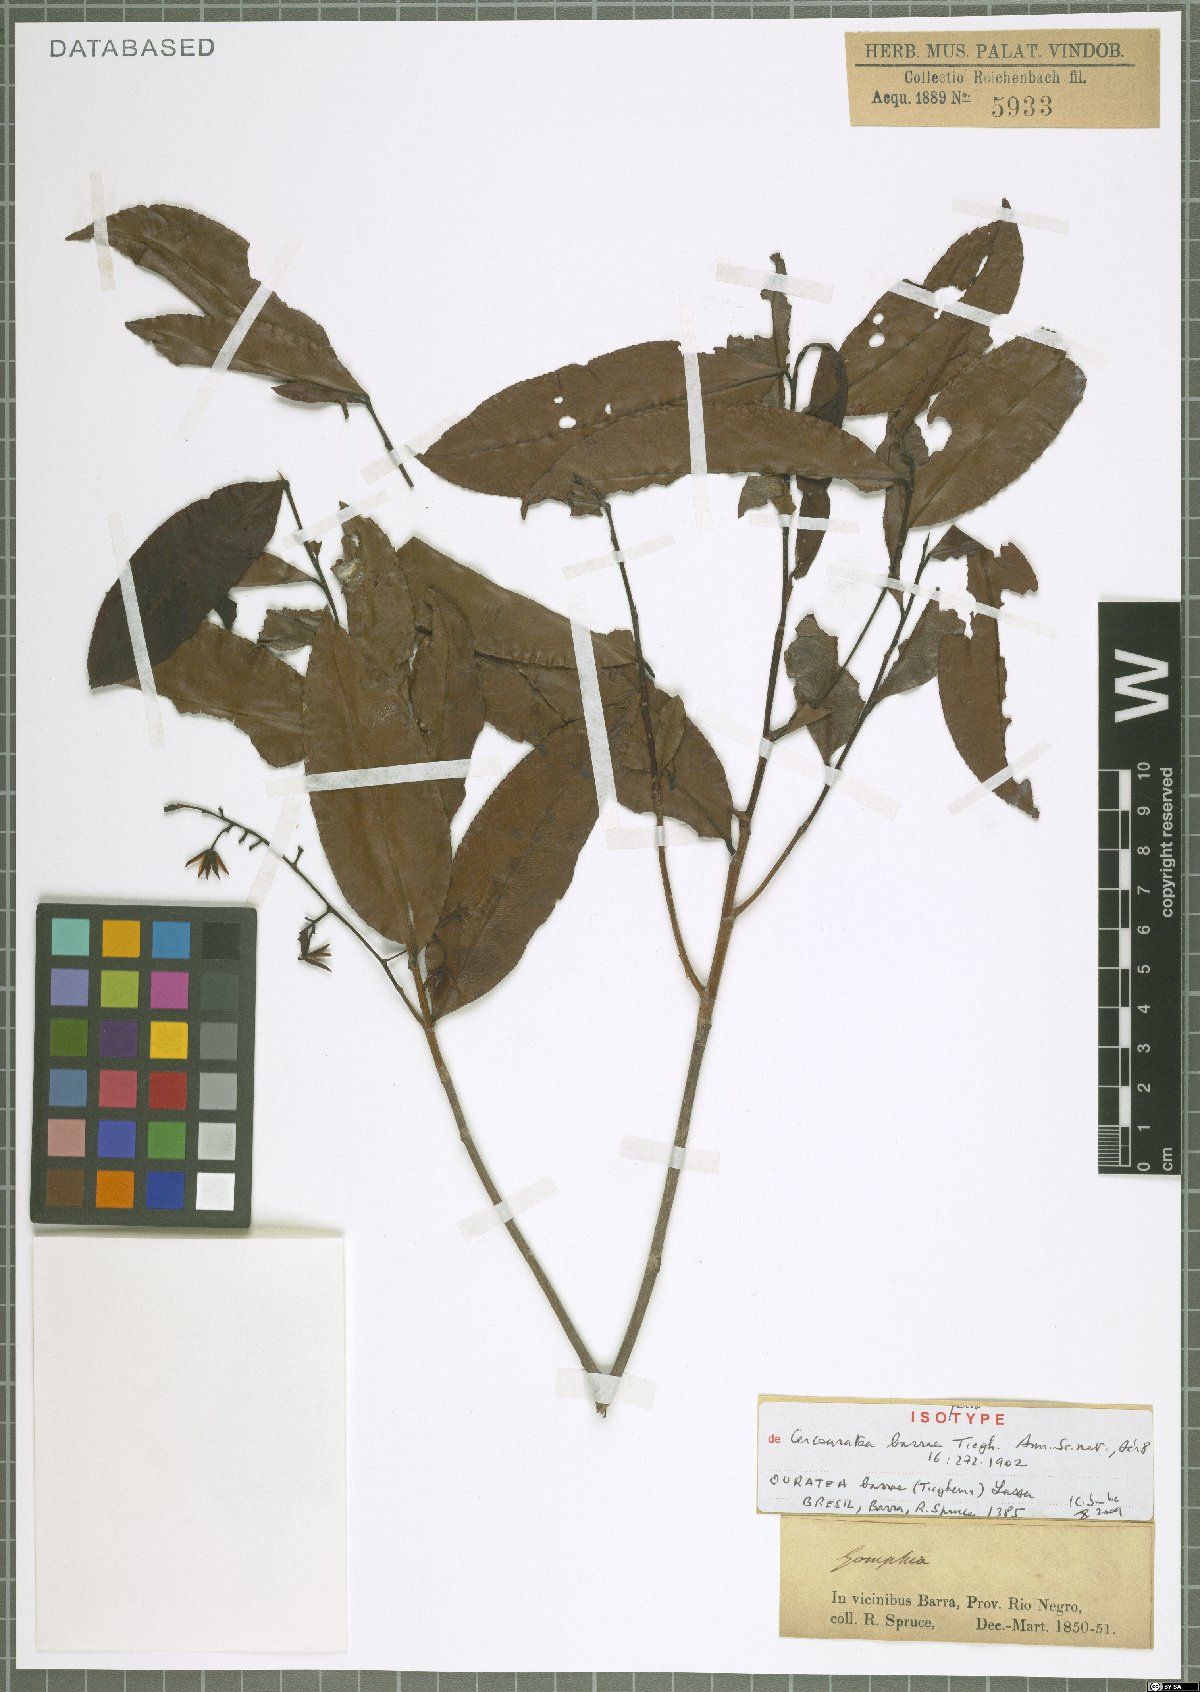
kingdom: Plantae
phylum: Tracheophyta
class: Magnoliopsida
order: Malpighiales
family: Ochnaceae
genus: Ouratea
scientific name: Ouratea barrae
